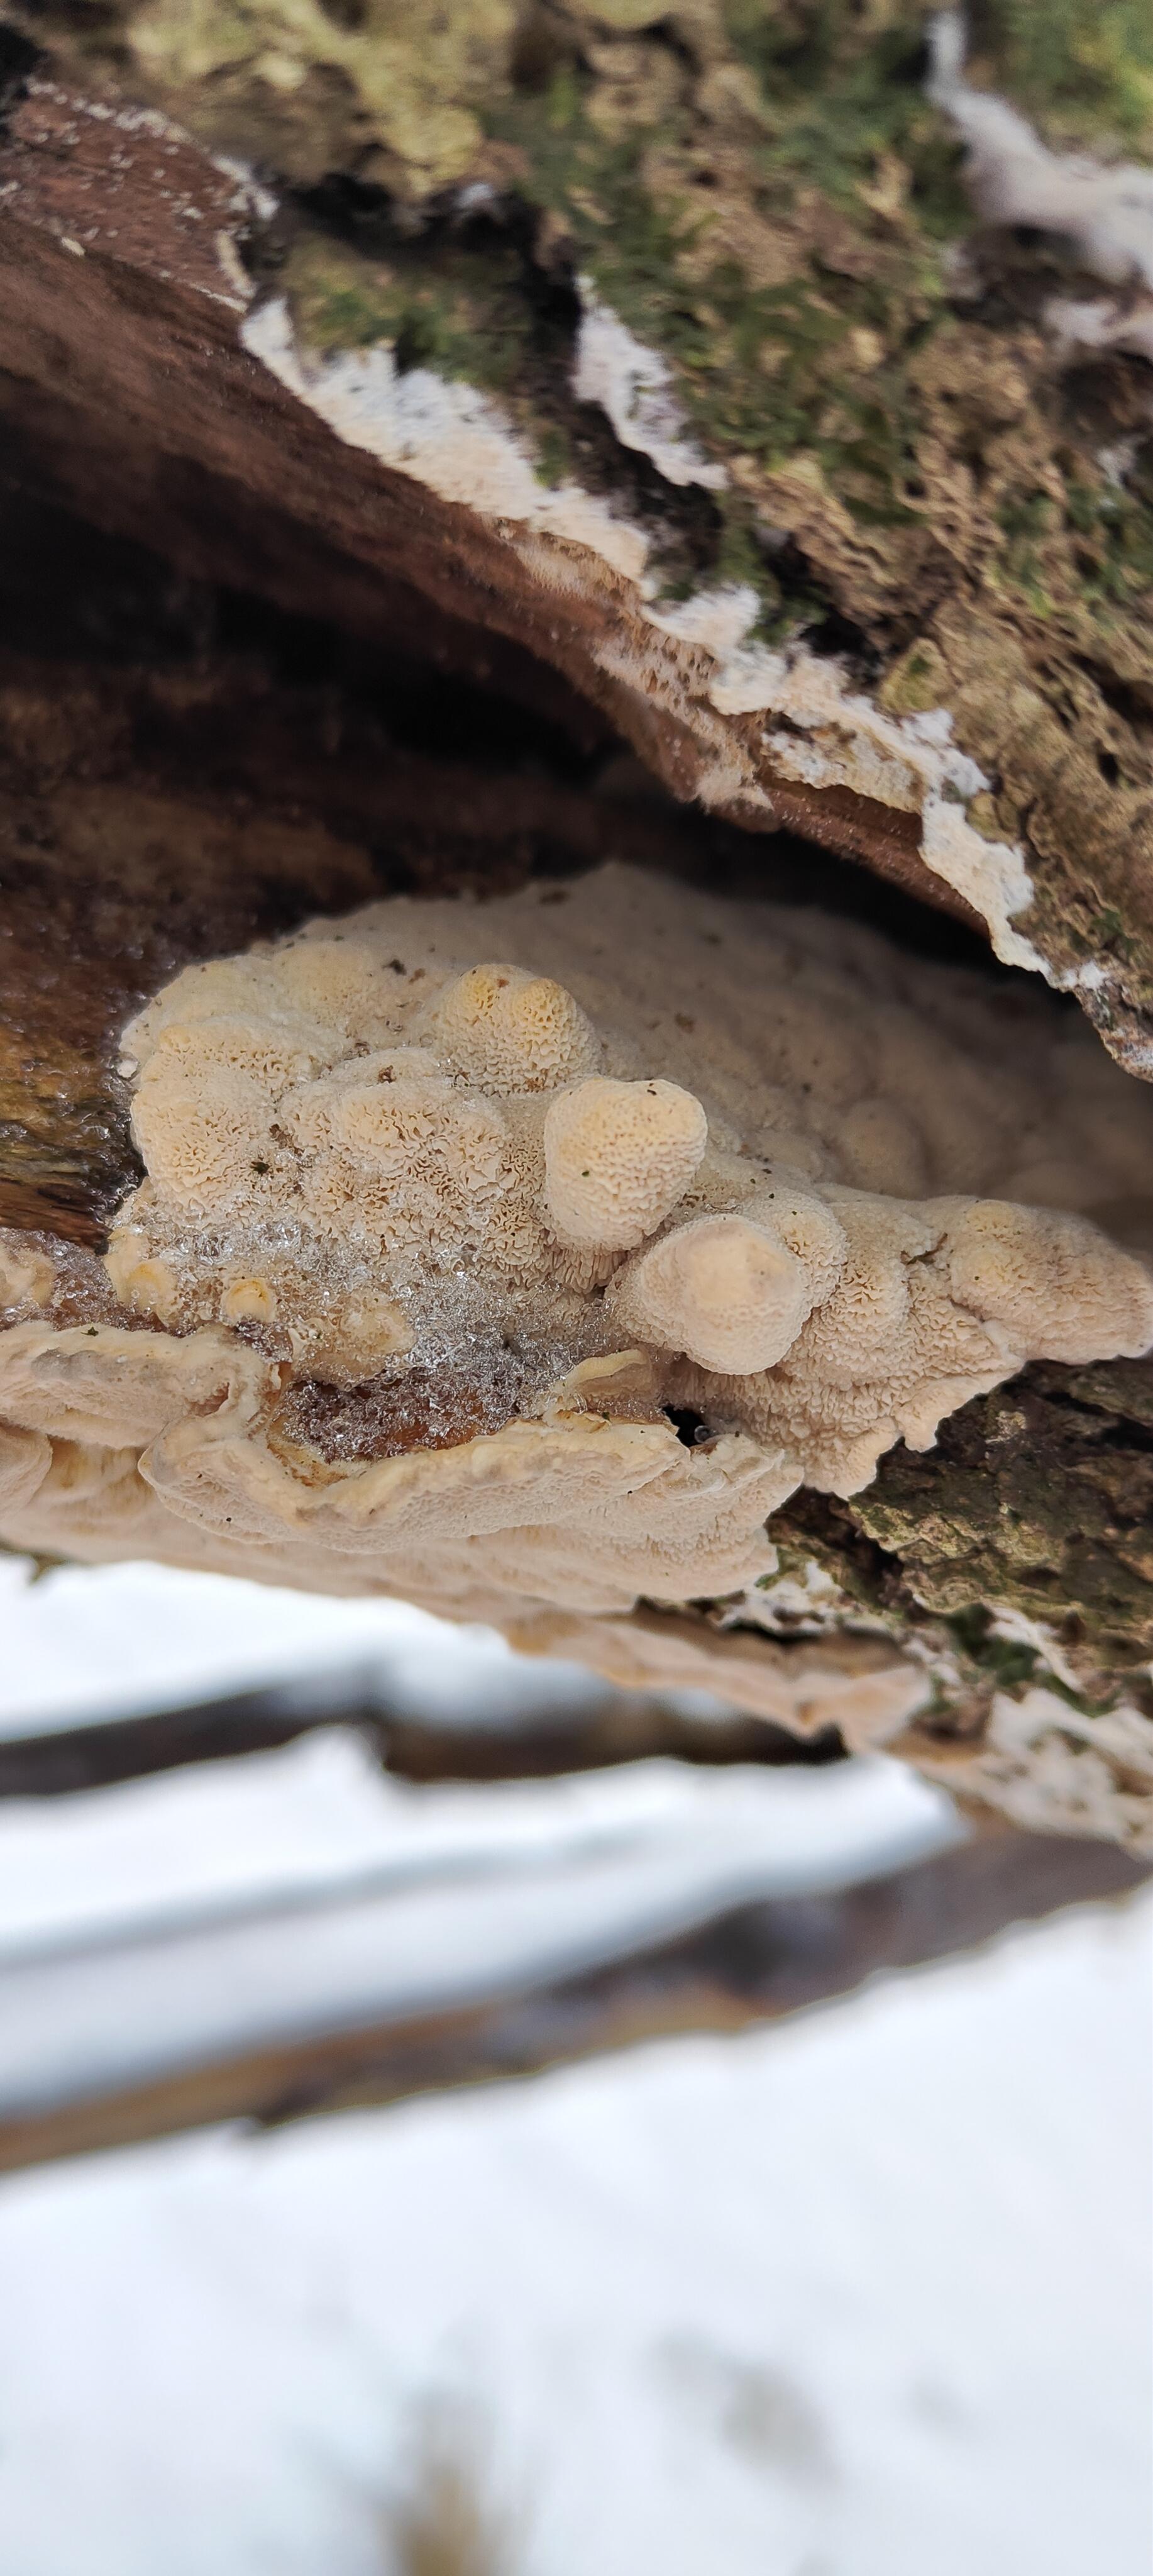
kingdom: Fungi
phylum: Basidiomycota
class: Agaricomycetes
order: Polyporales
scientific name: Polyporales
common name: poresvampordenen
